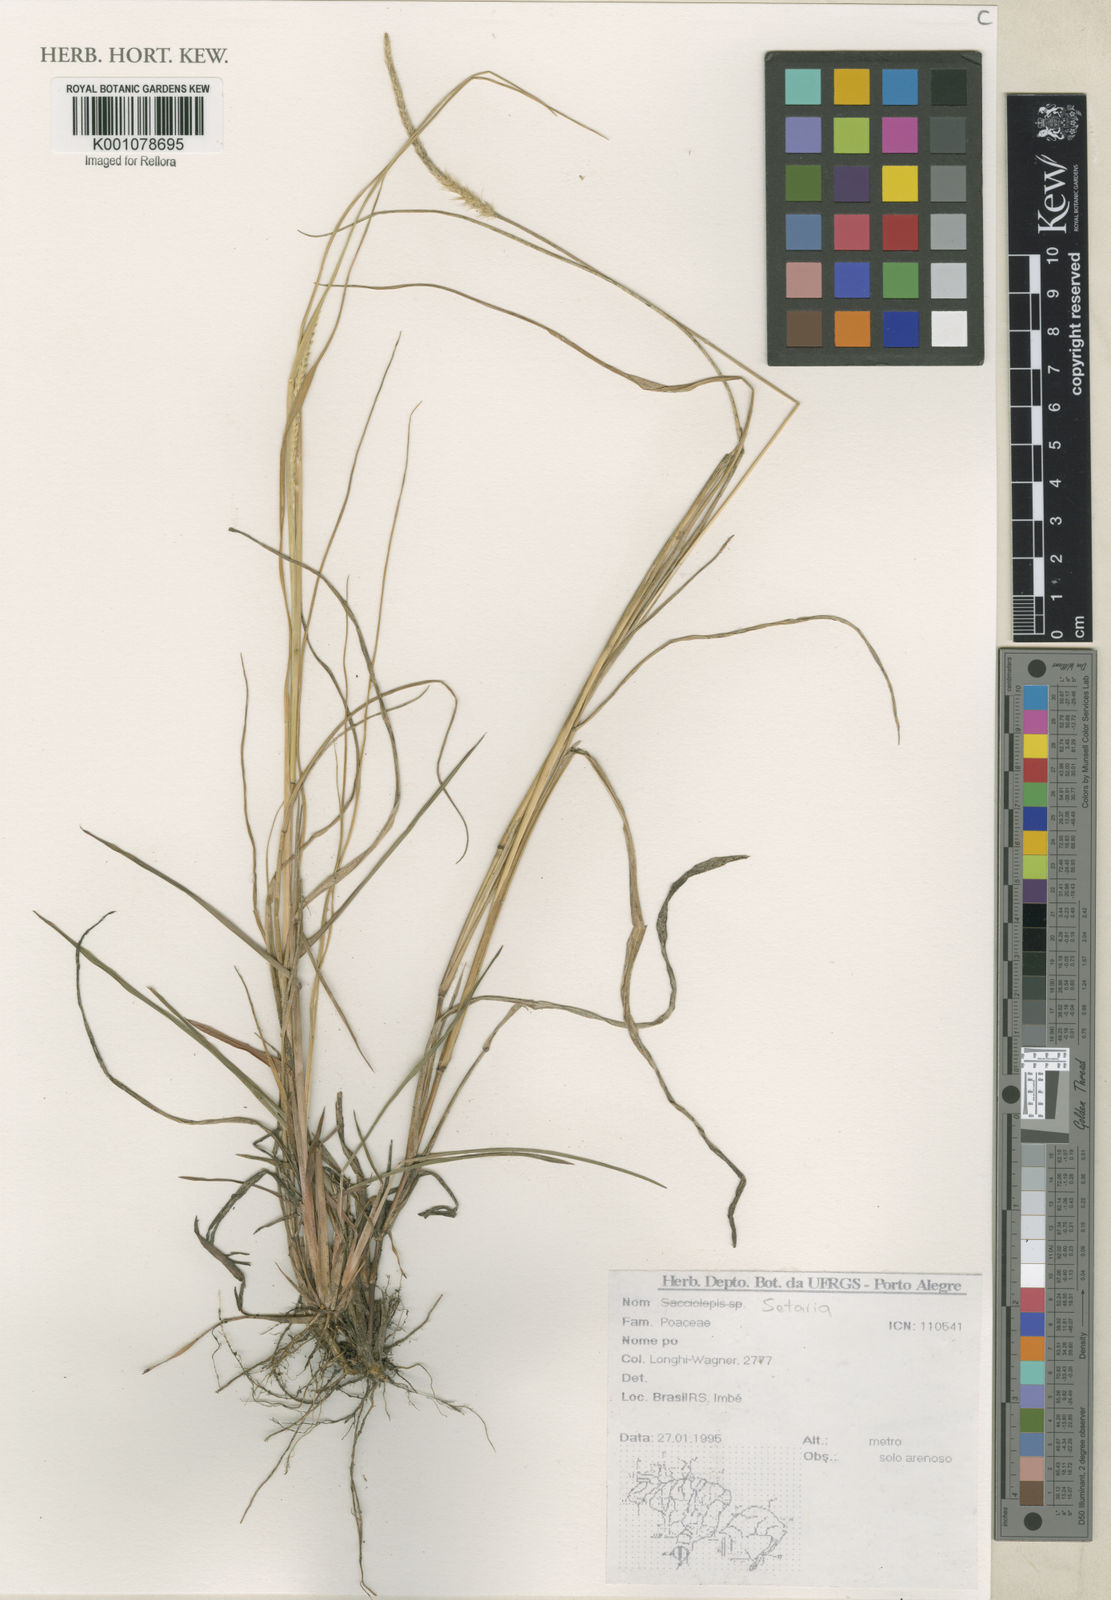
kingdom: Plantae
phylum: Tracheophyta
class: Liliopsida
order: Poales
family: Poaceae
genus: Setaria
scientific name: Setaria
